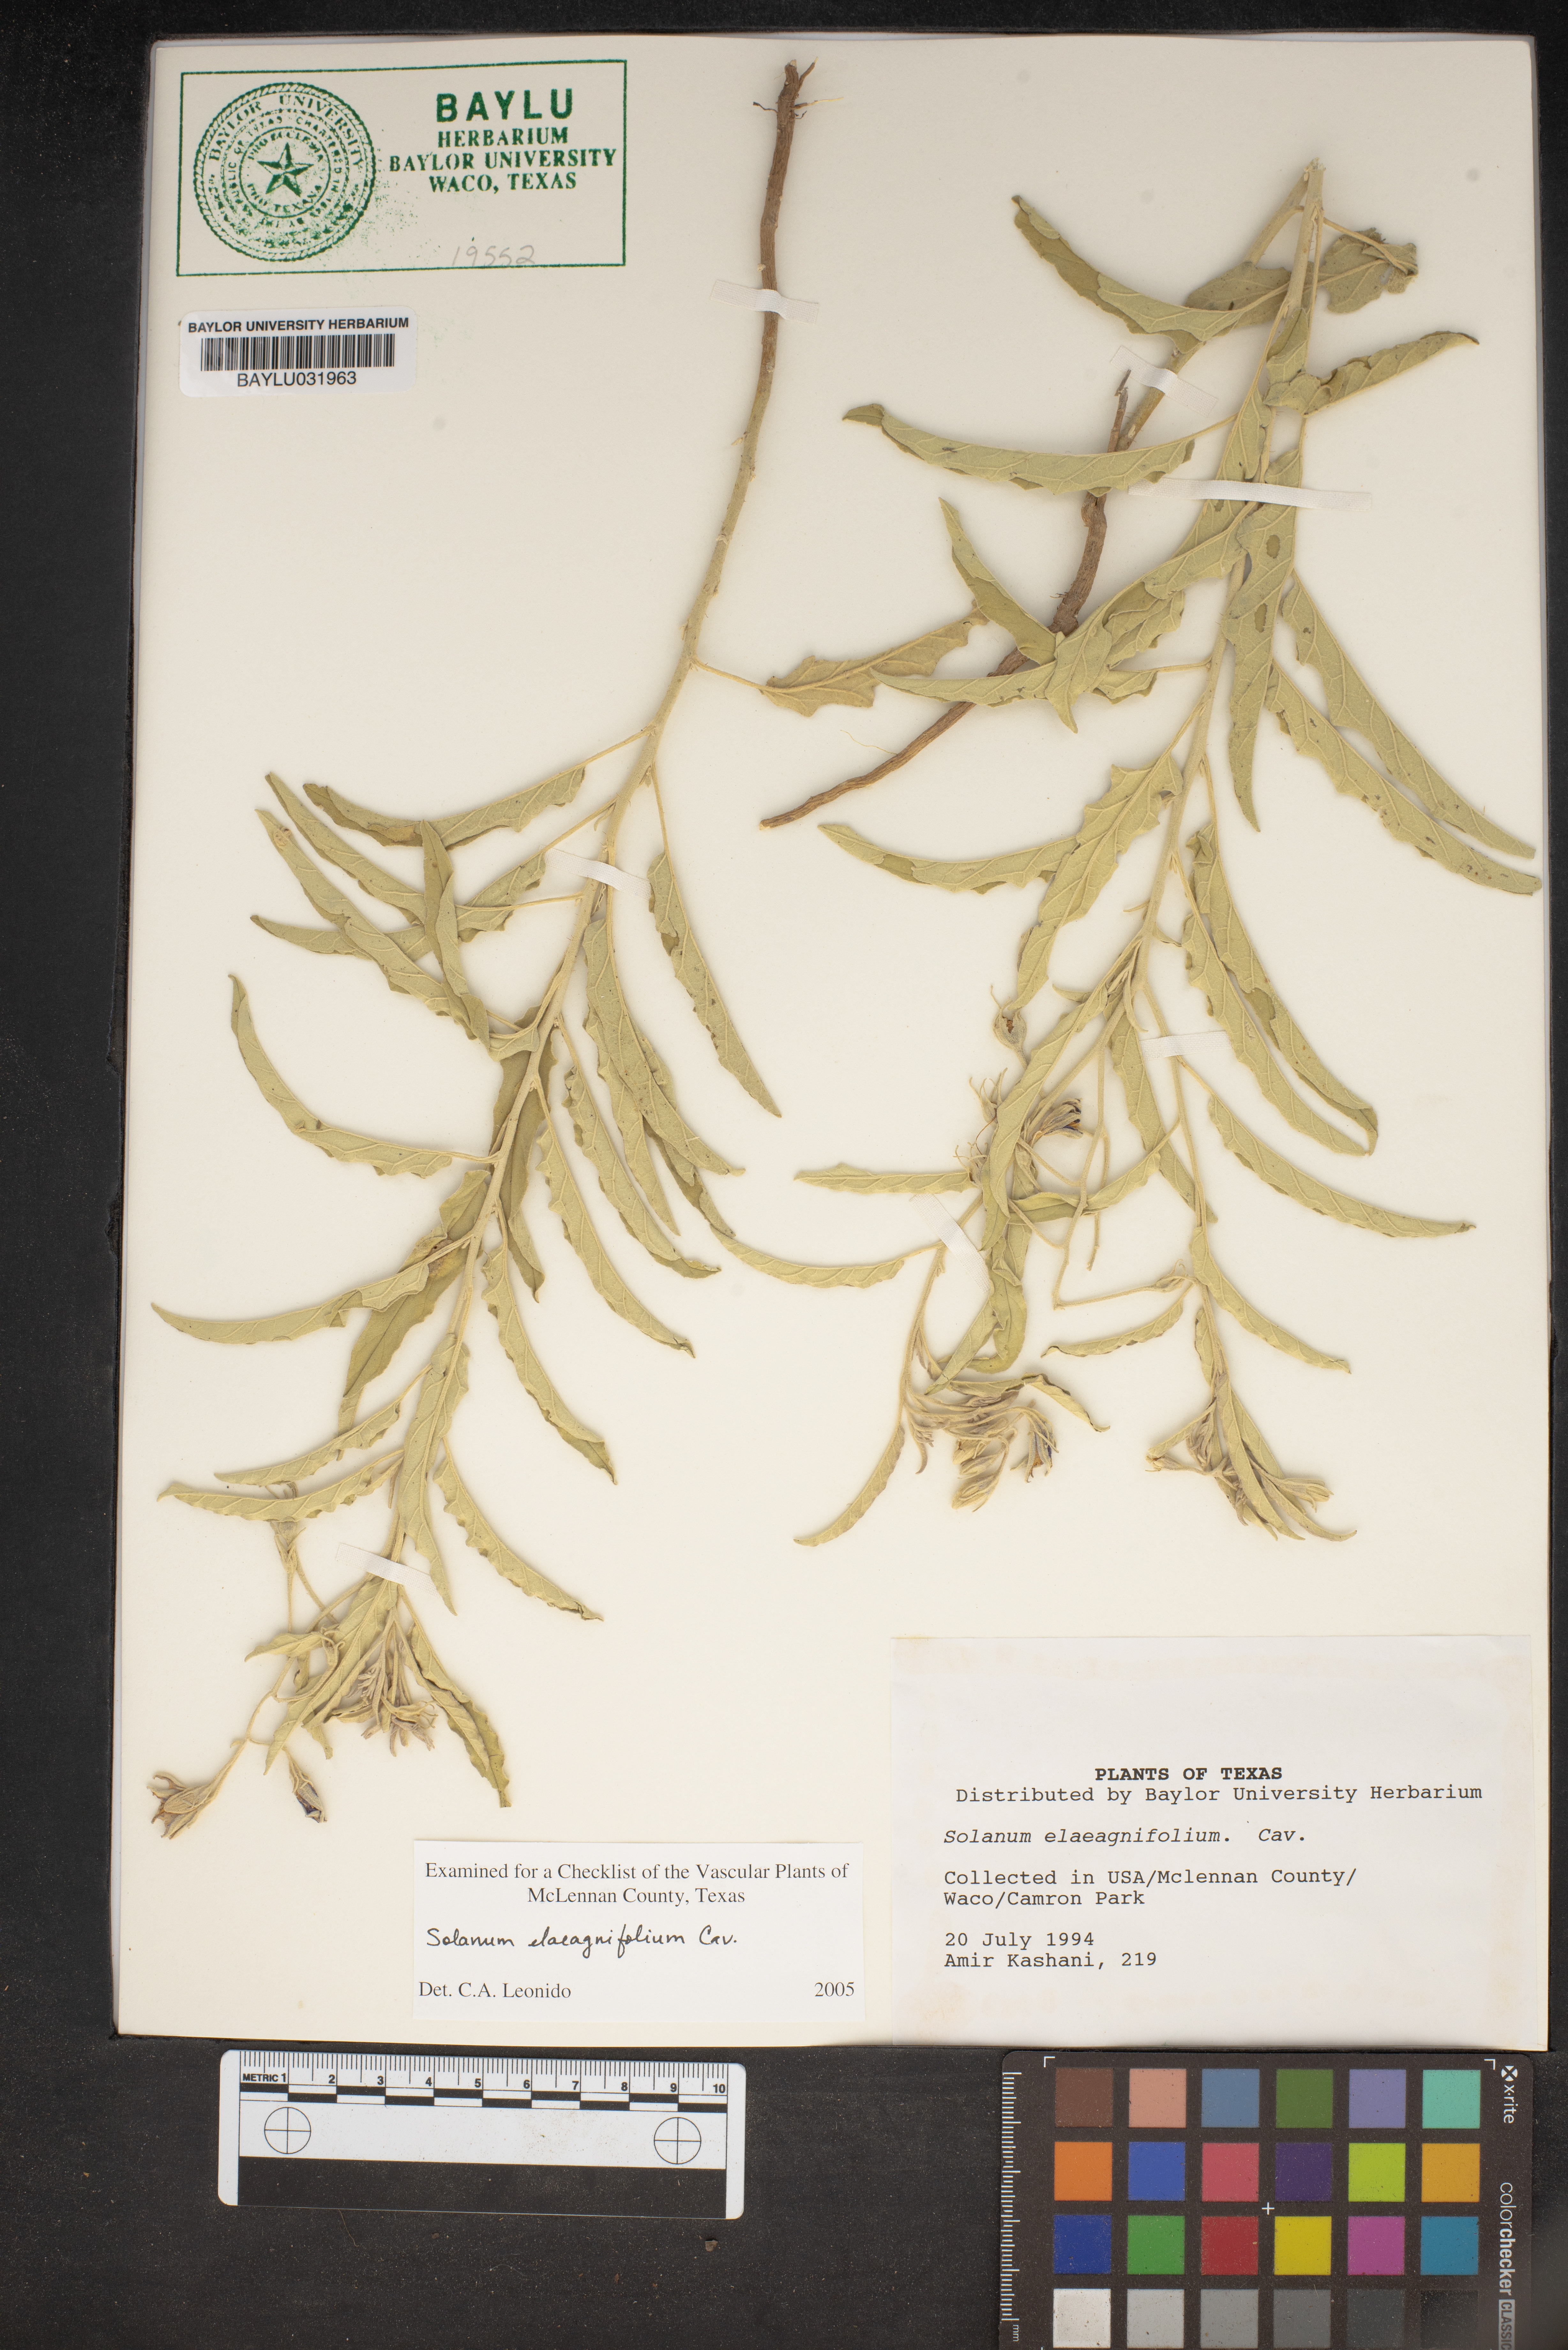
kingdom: Plantae
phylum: Tracheophyta
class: Magnoliopsida
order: Solanales
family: Solanaceae
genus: Solanum
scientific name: Solanum elaeagnifolium
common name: Silverleaf nightshade
